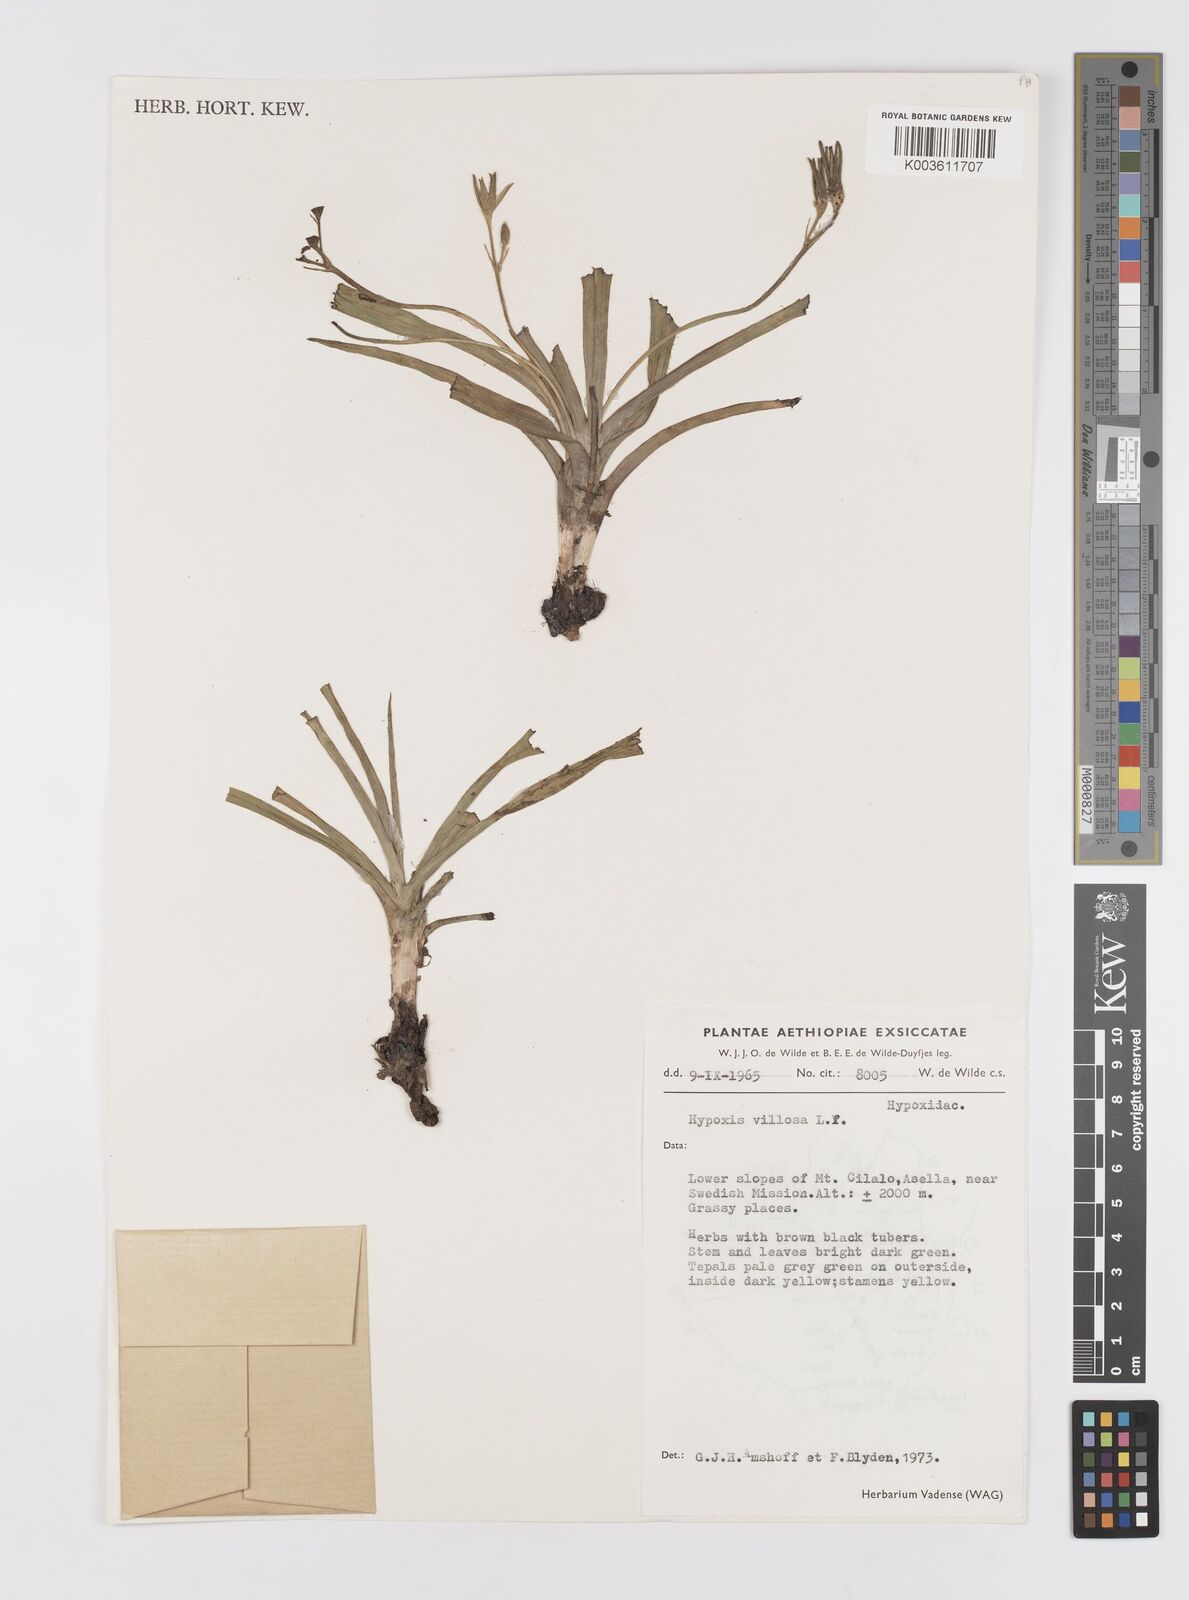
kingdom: Plantae
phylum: Tracheophyta
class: Liliopsida
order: Asparagales
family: Hypoxidaceae
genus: Hypoxis
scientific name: Hypoxis villosa
